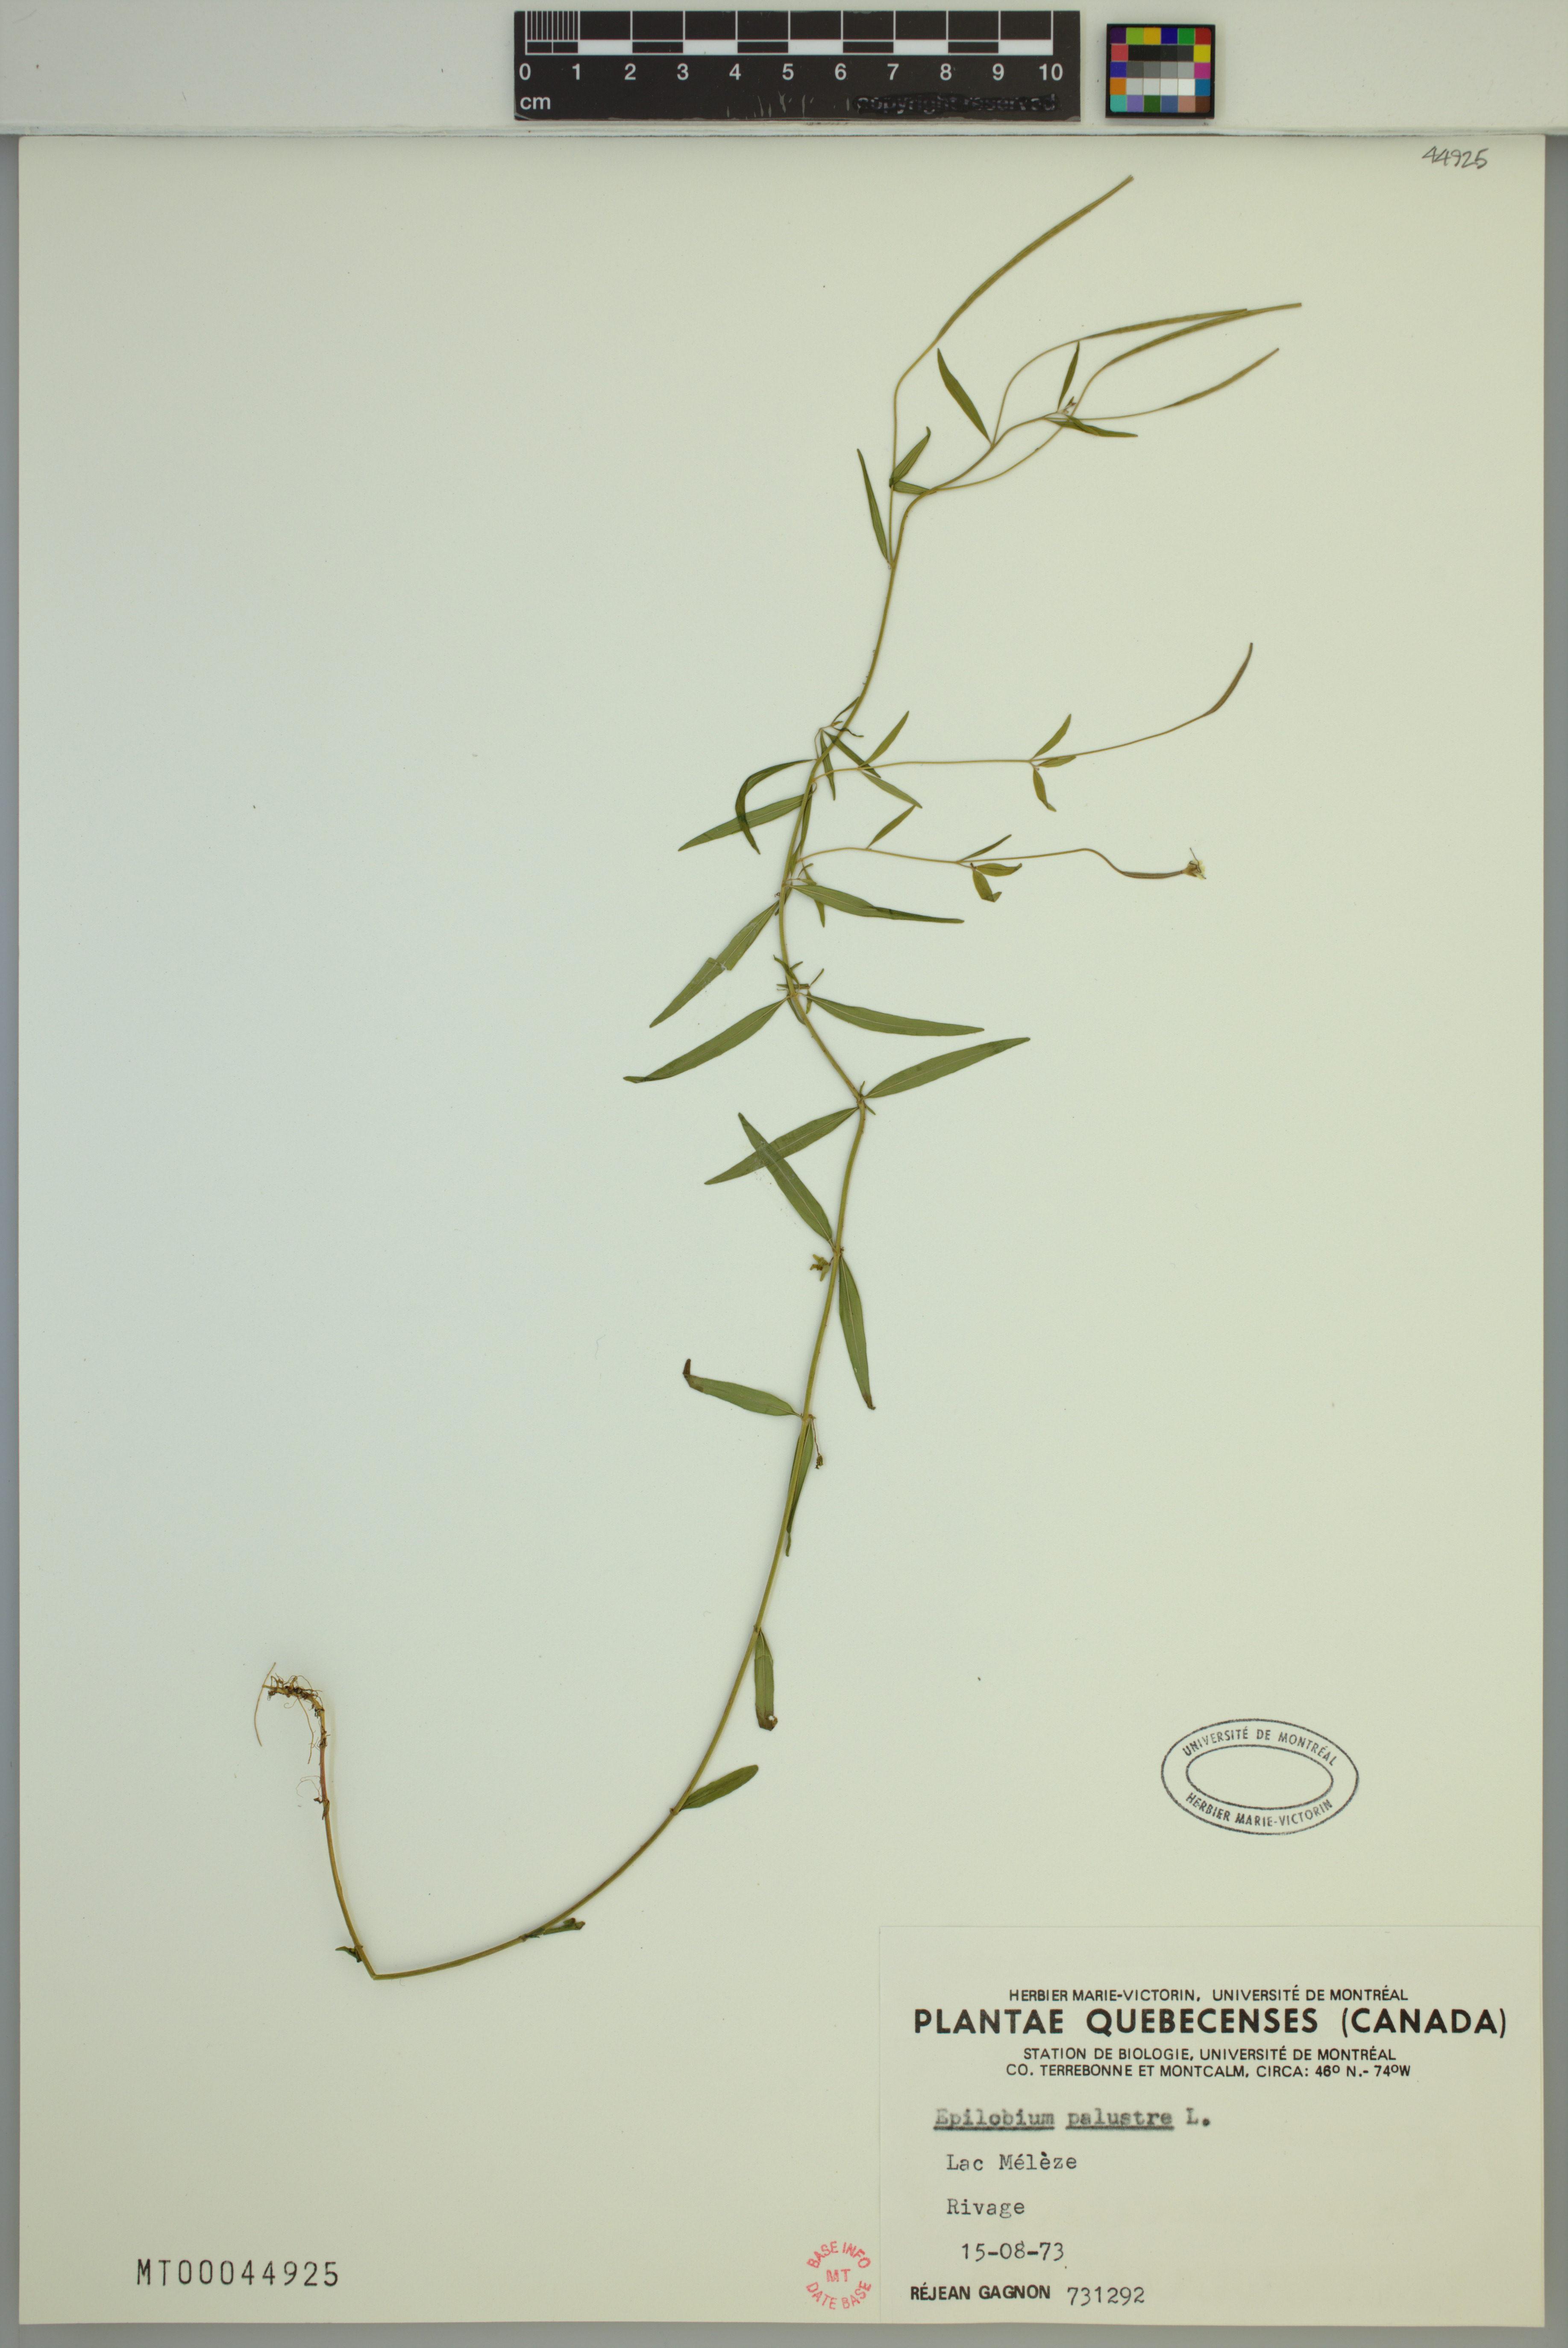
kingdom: Plantae
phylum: Tracheophyta
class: Magnoliopsida
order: Myrtales
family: Onagraceae
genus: Epilobium
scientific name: Epilobium palustre
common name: Marsh willowherb
